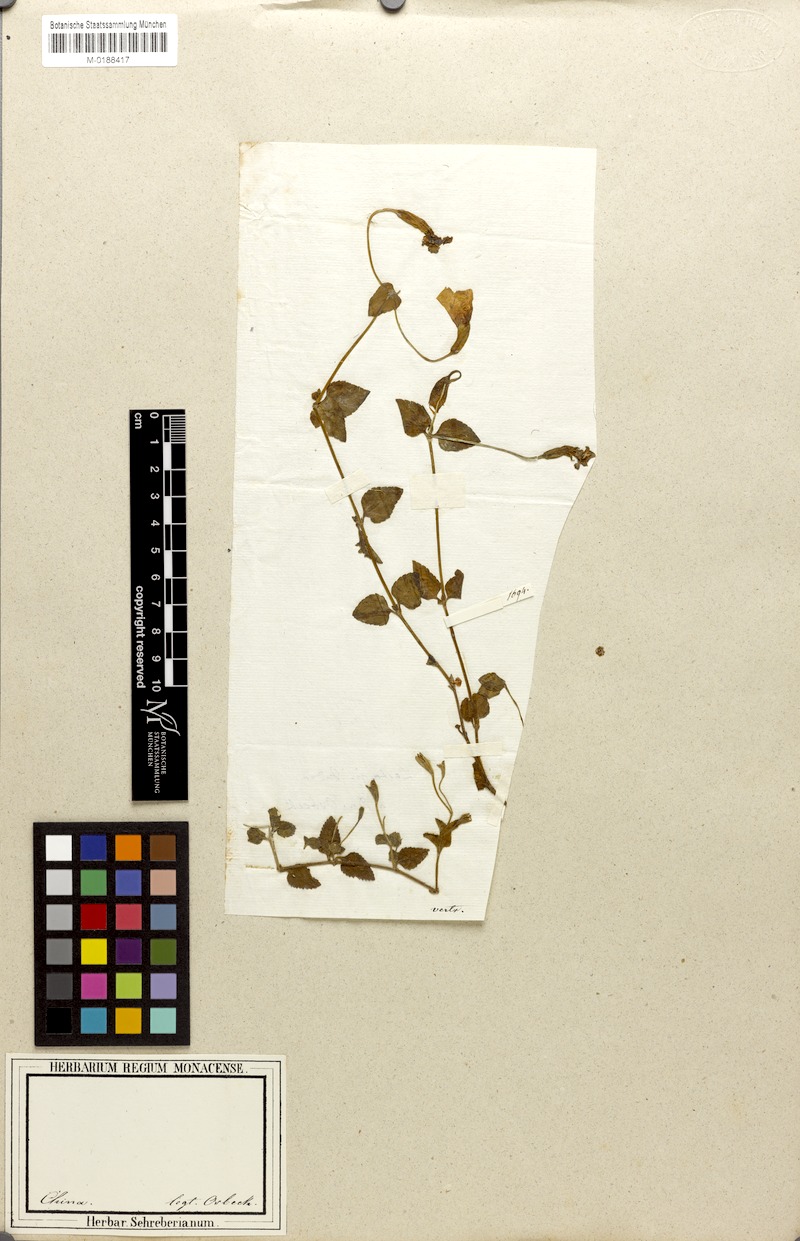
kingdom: Plantae
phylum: Tracheophyta
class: Magnoliopsida
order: Lamiales
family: Linderniaceae
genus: Torenia
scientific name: Torenia asiatica
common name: Wishbone flower
